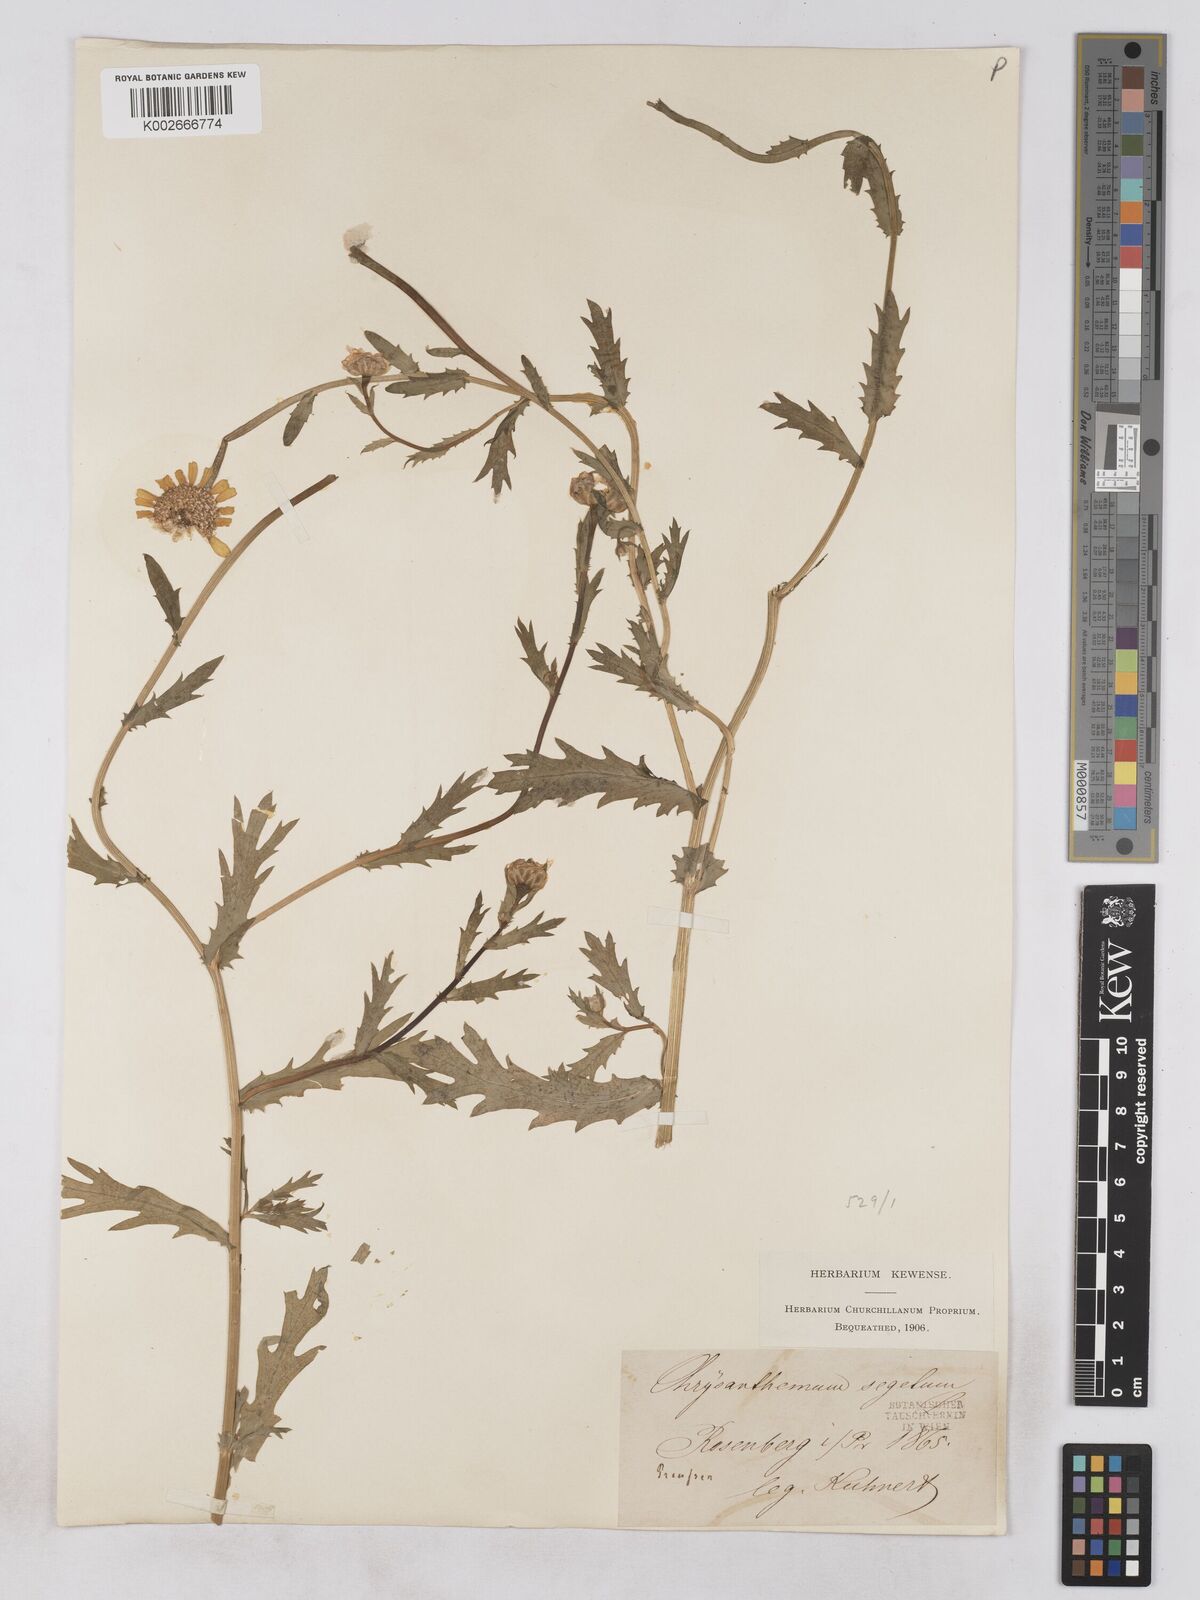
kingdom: Plantae
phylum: Tracheophyta
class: Magnoliopsida
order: Asterales
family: Asteraceae
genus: Glebionis
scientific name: Glebionis segetum
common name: Corndaisy
